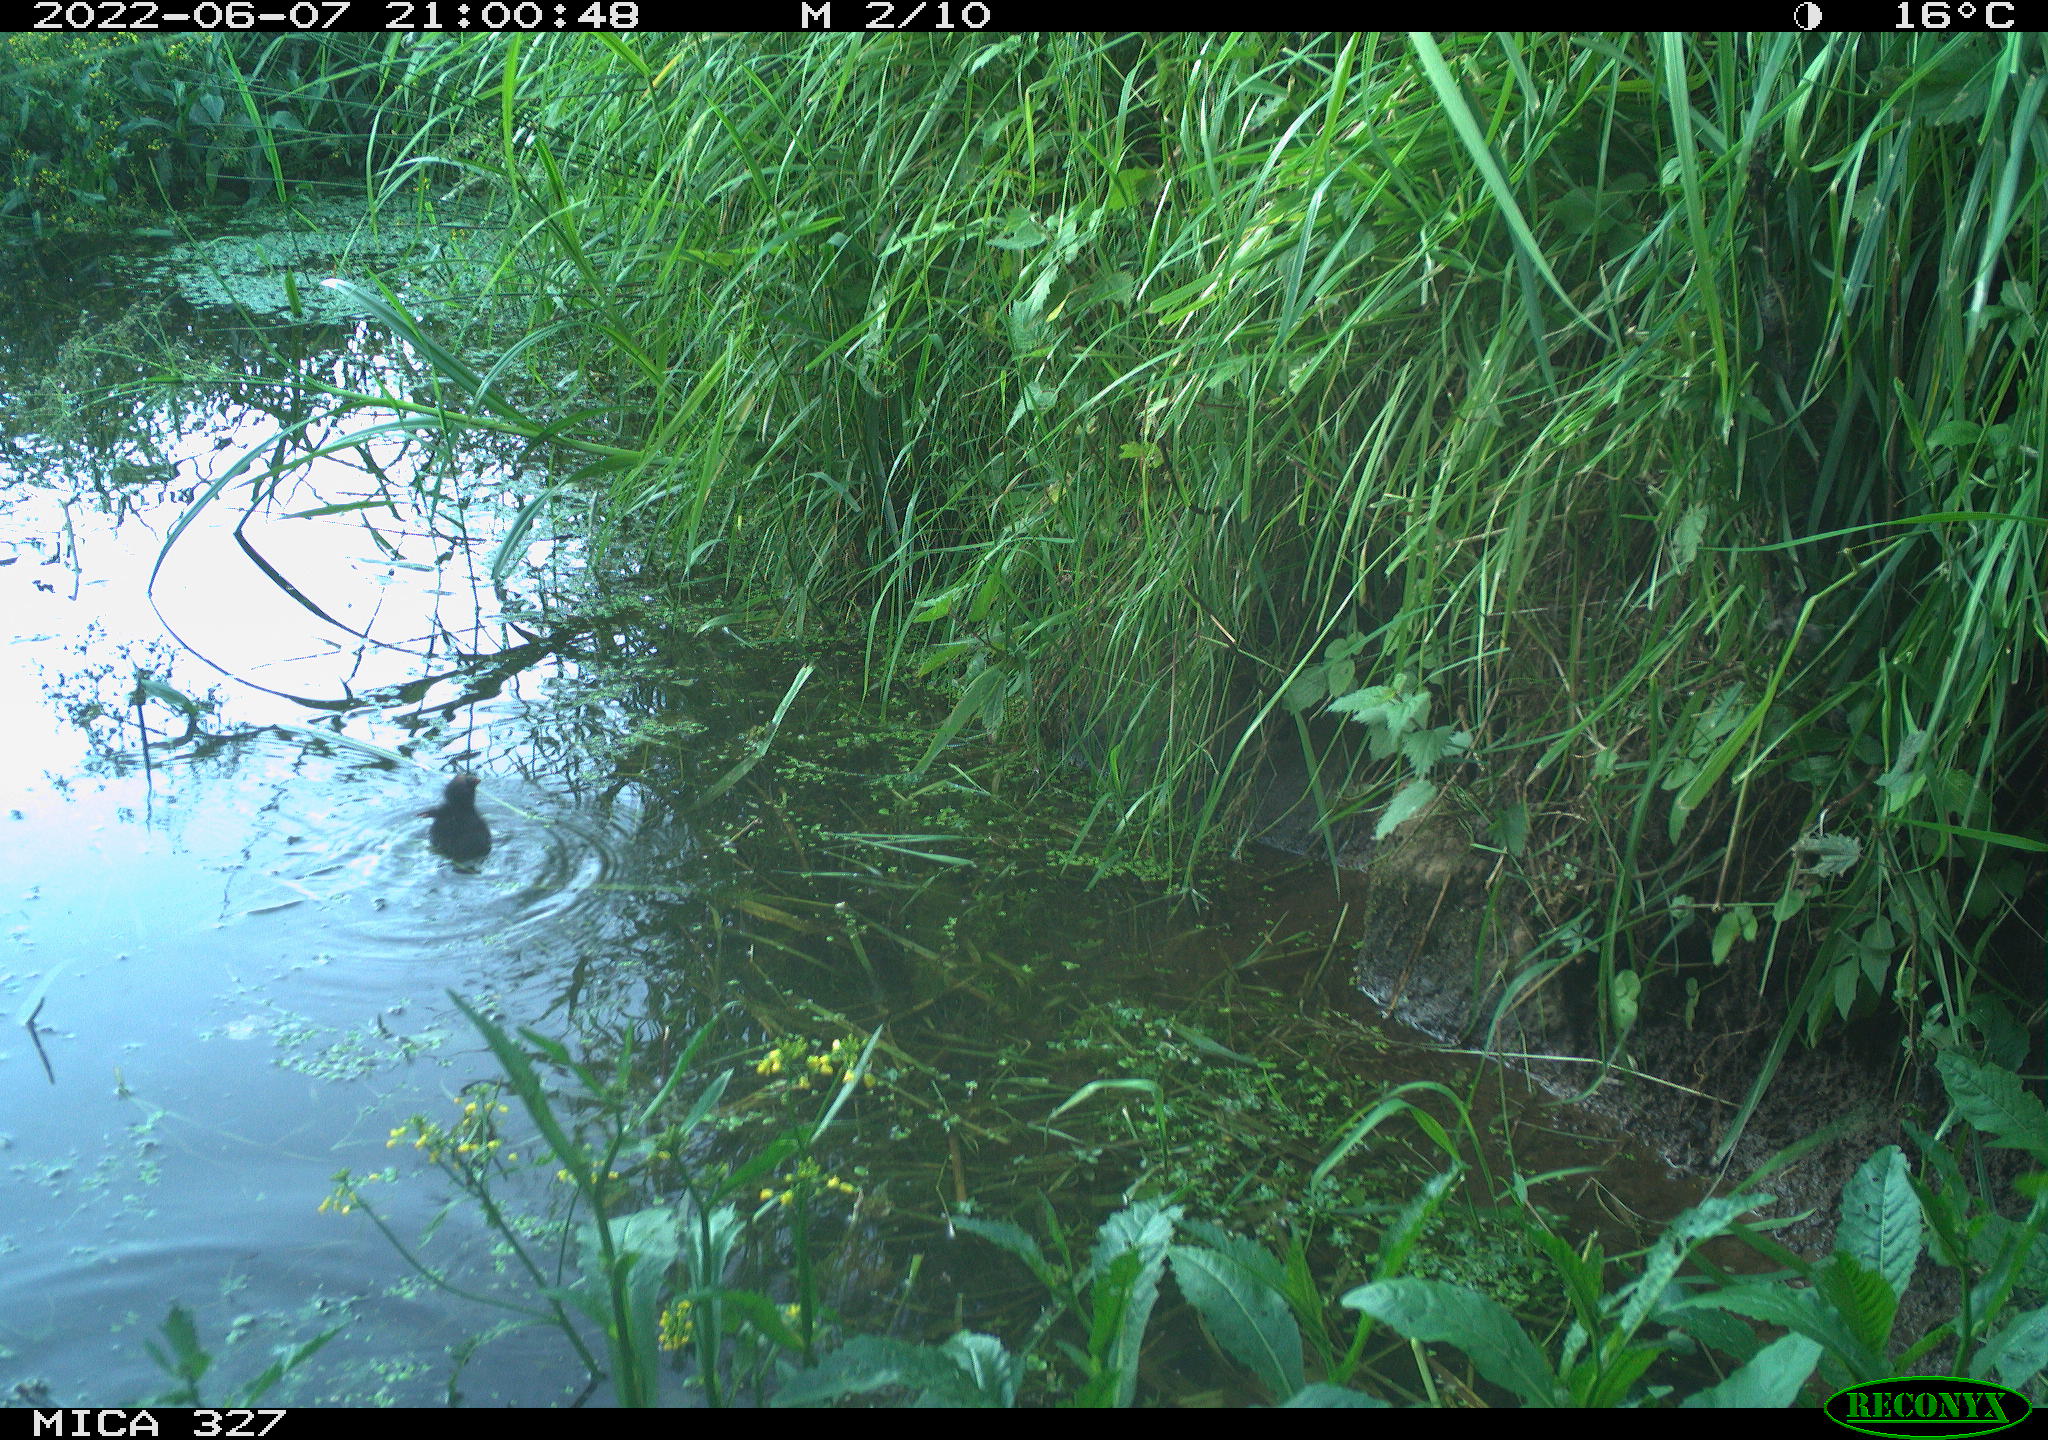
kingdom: Animalia
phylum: Chordata
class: Aves
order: Gruiformes
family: Rallidae
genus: Gallinula
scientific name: Gallinula chloropus
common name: Common moorhen
